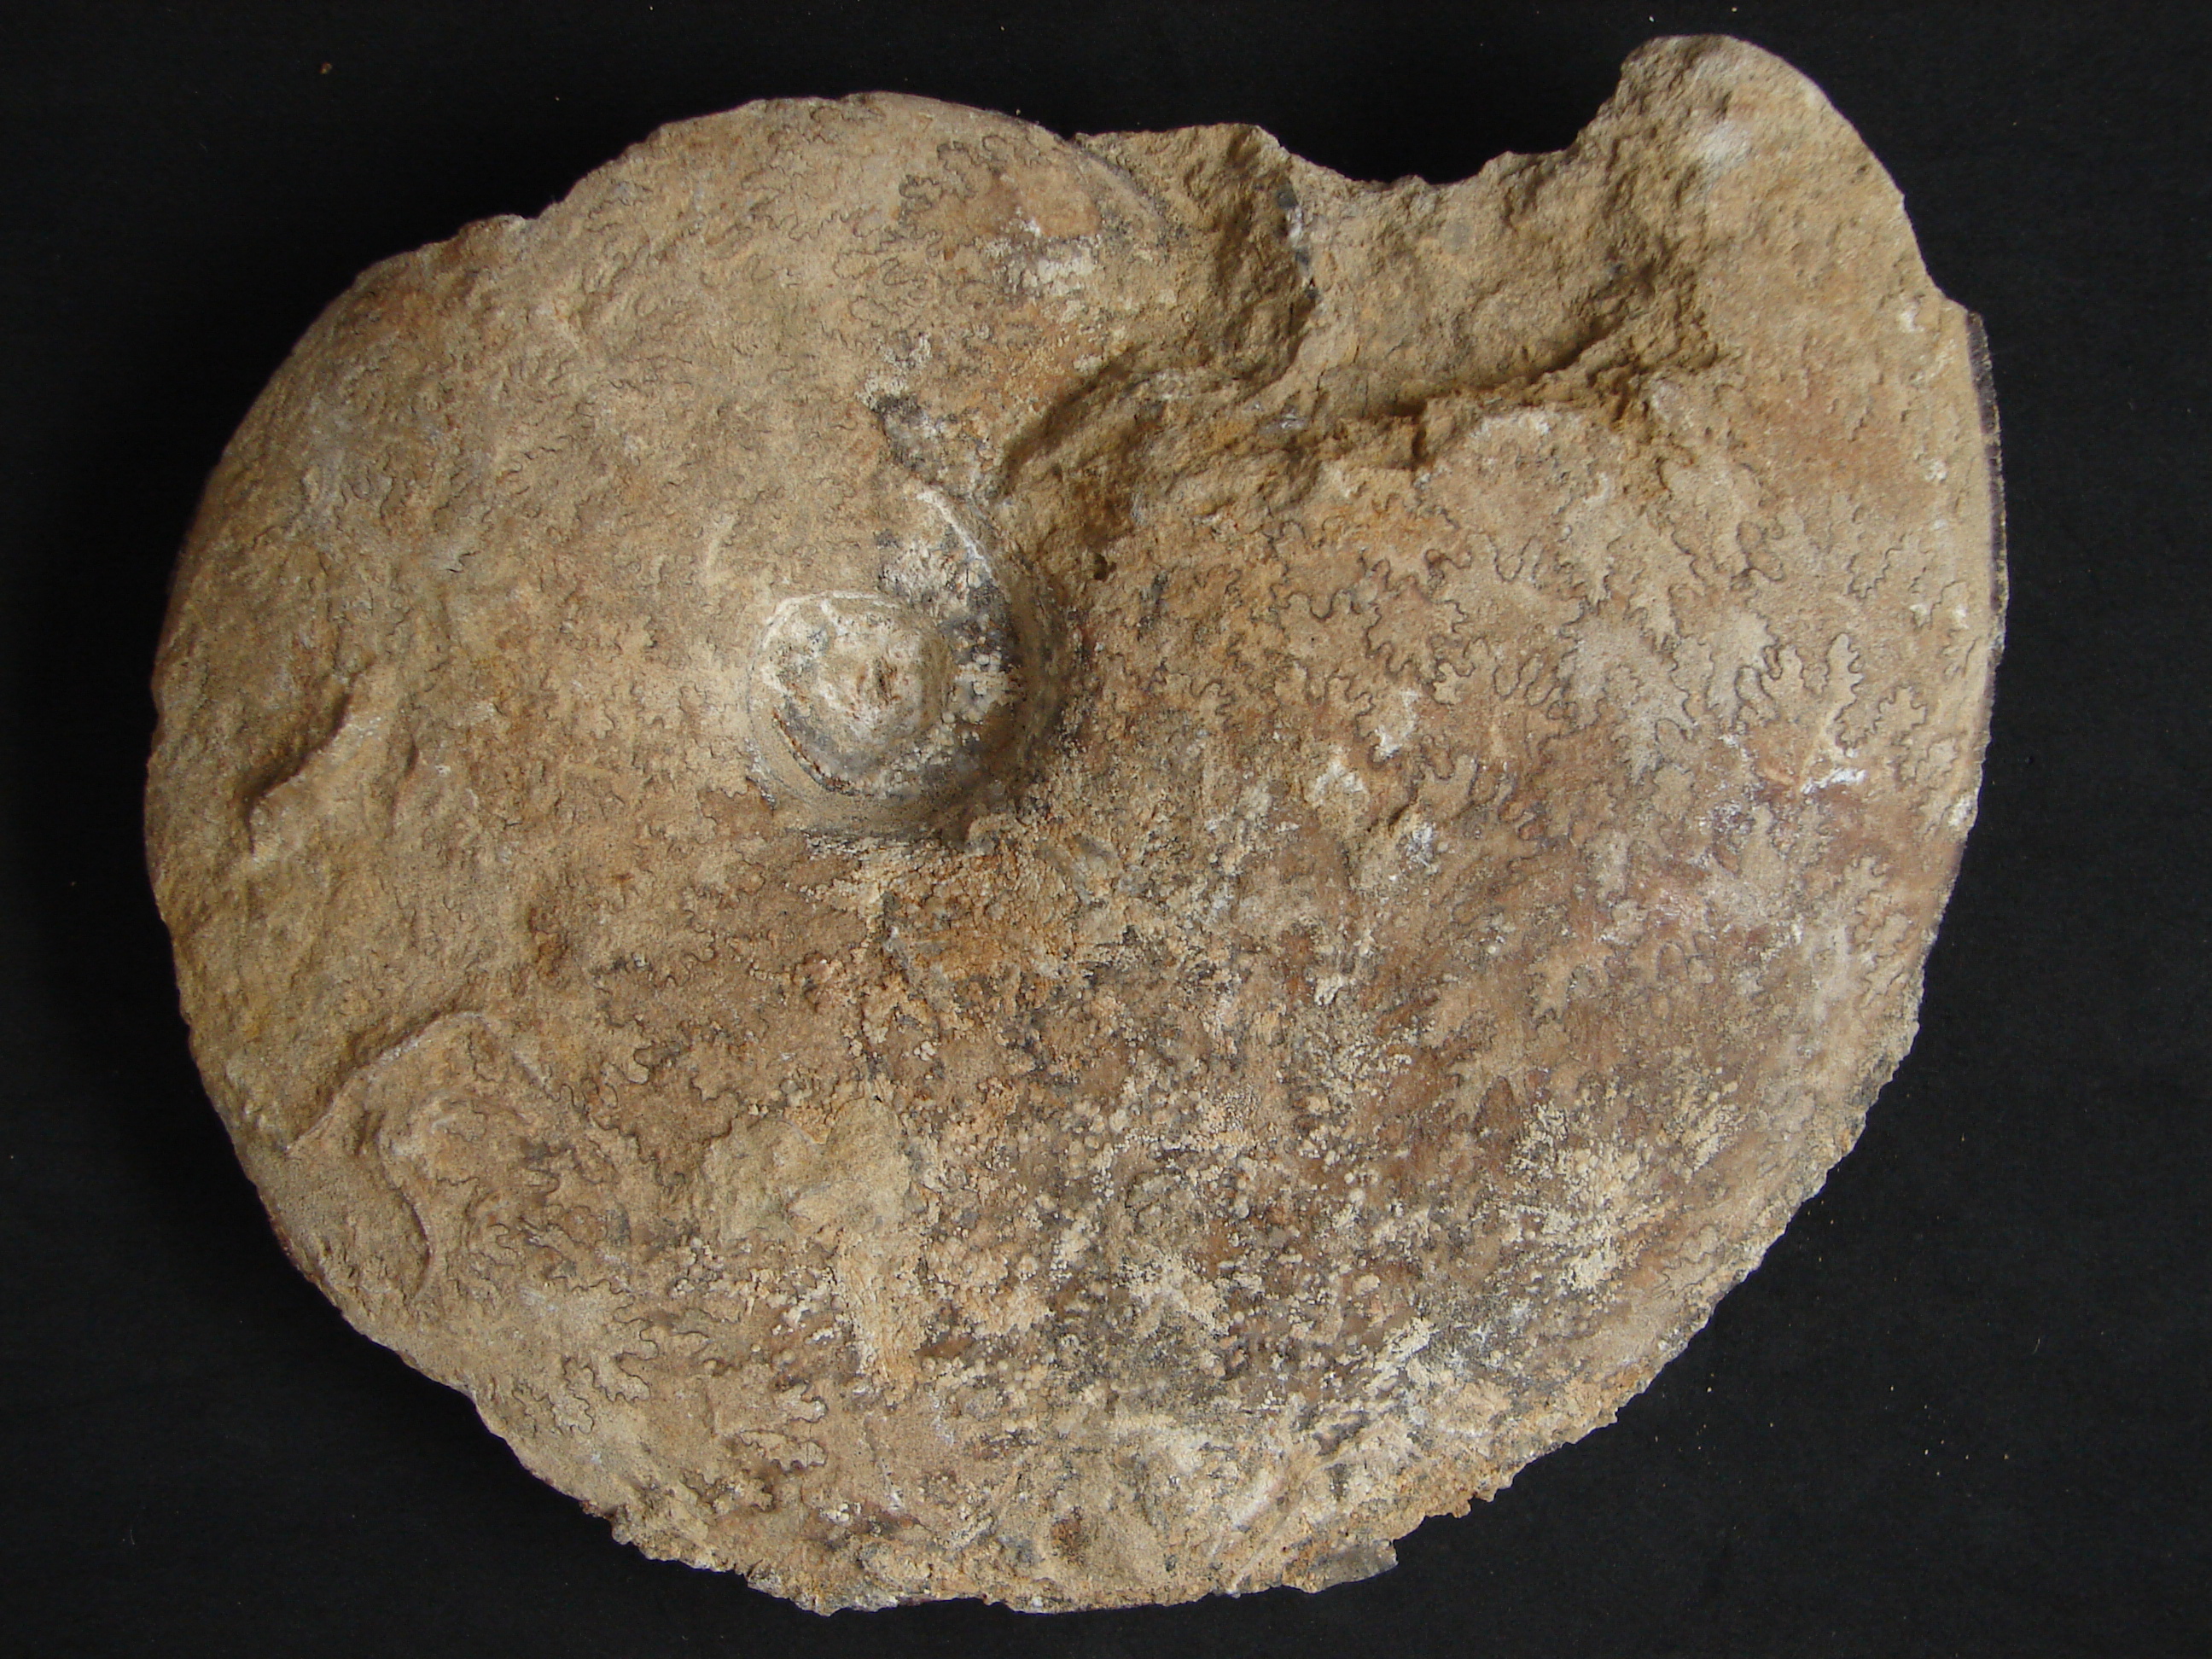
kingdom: Animalia
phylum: Mollusca
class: Cephalopoda
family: Graphoceratidae
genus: Hyperlioceras
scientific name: Hyperlioceras
